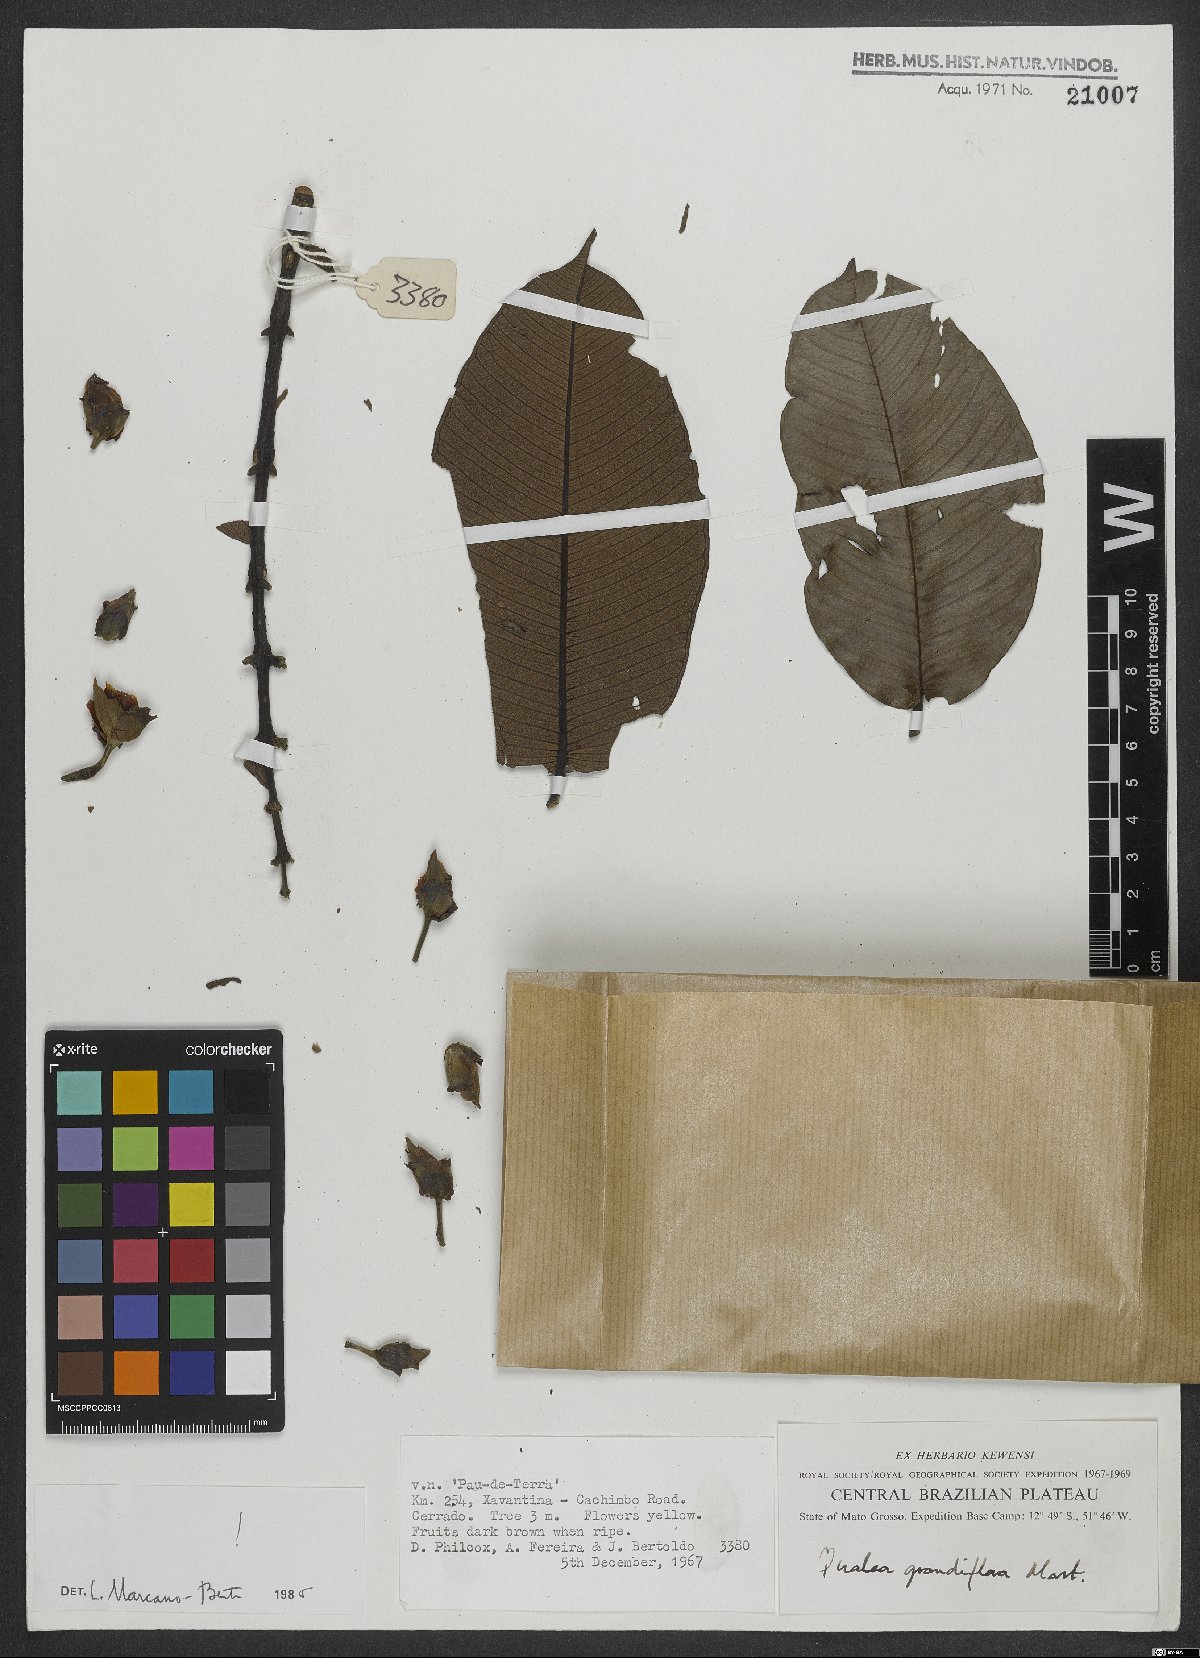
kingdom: Plantae
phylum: Tracheophyta
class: Magnoliopsida
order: Myrtales
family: Vochysiaceae
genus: Qualea
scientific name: Qualea grandiflora
